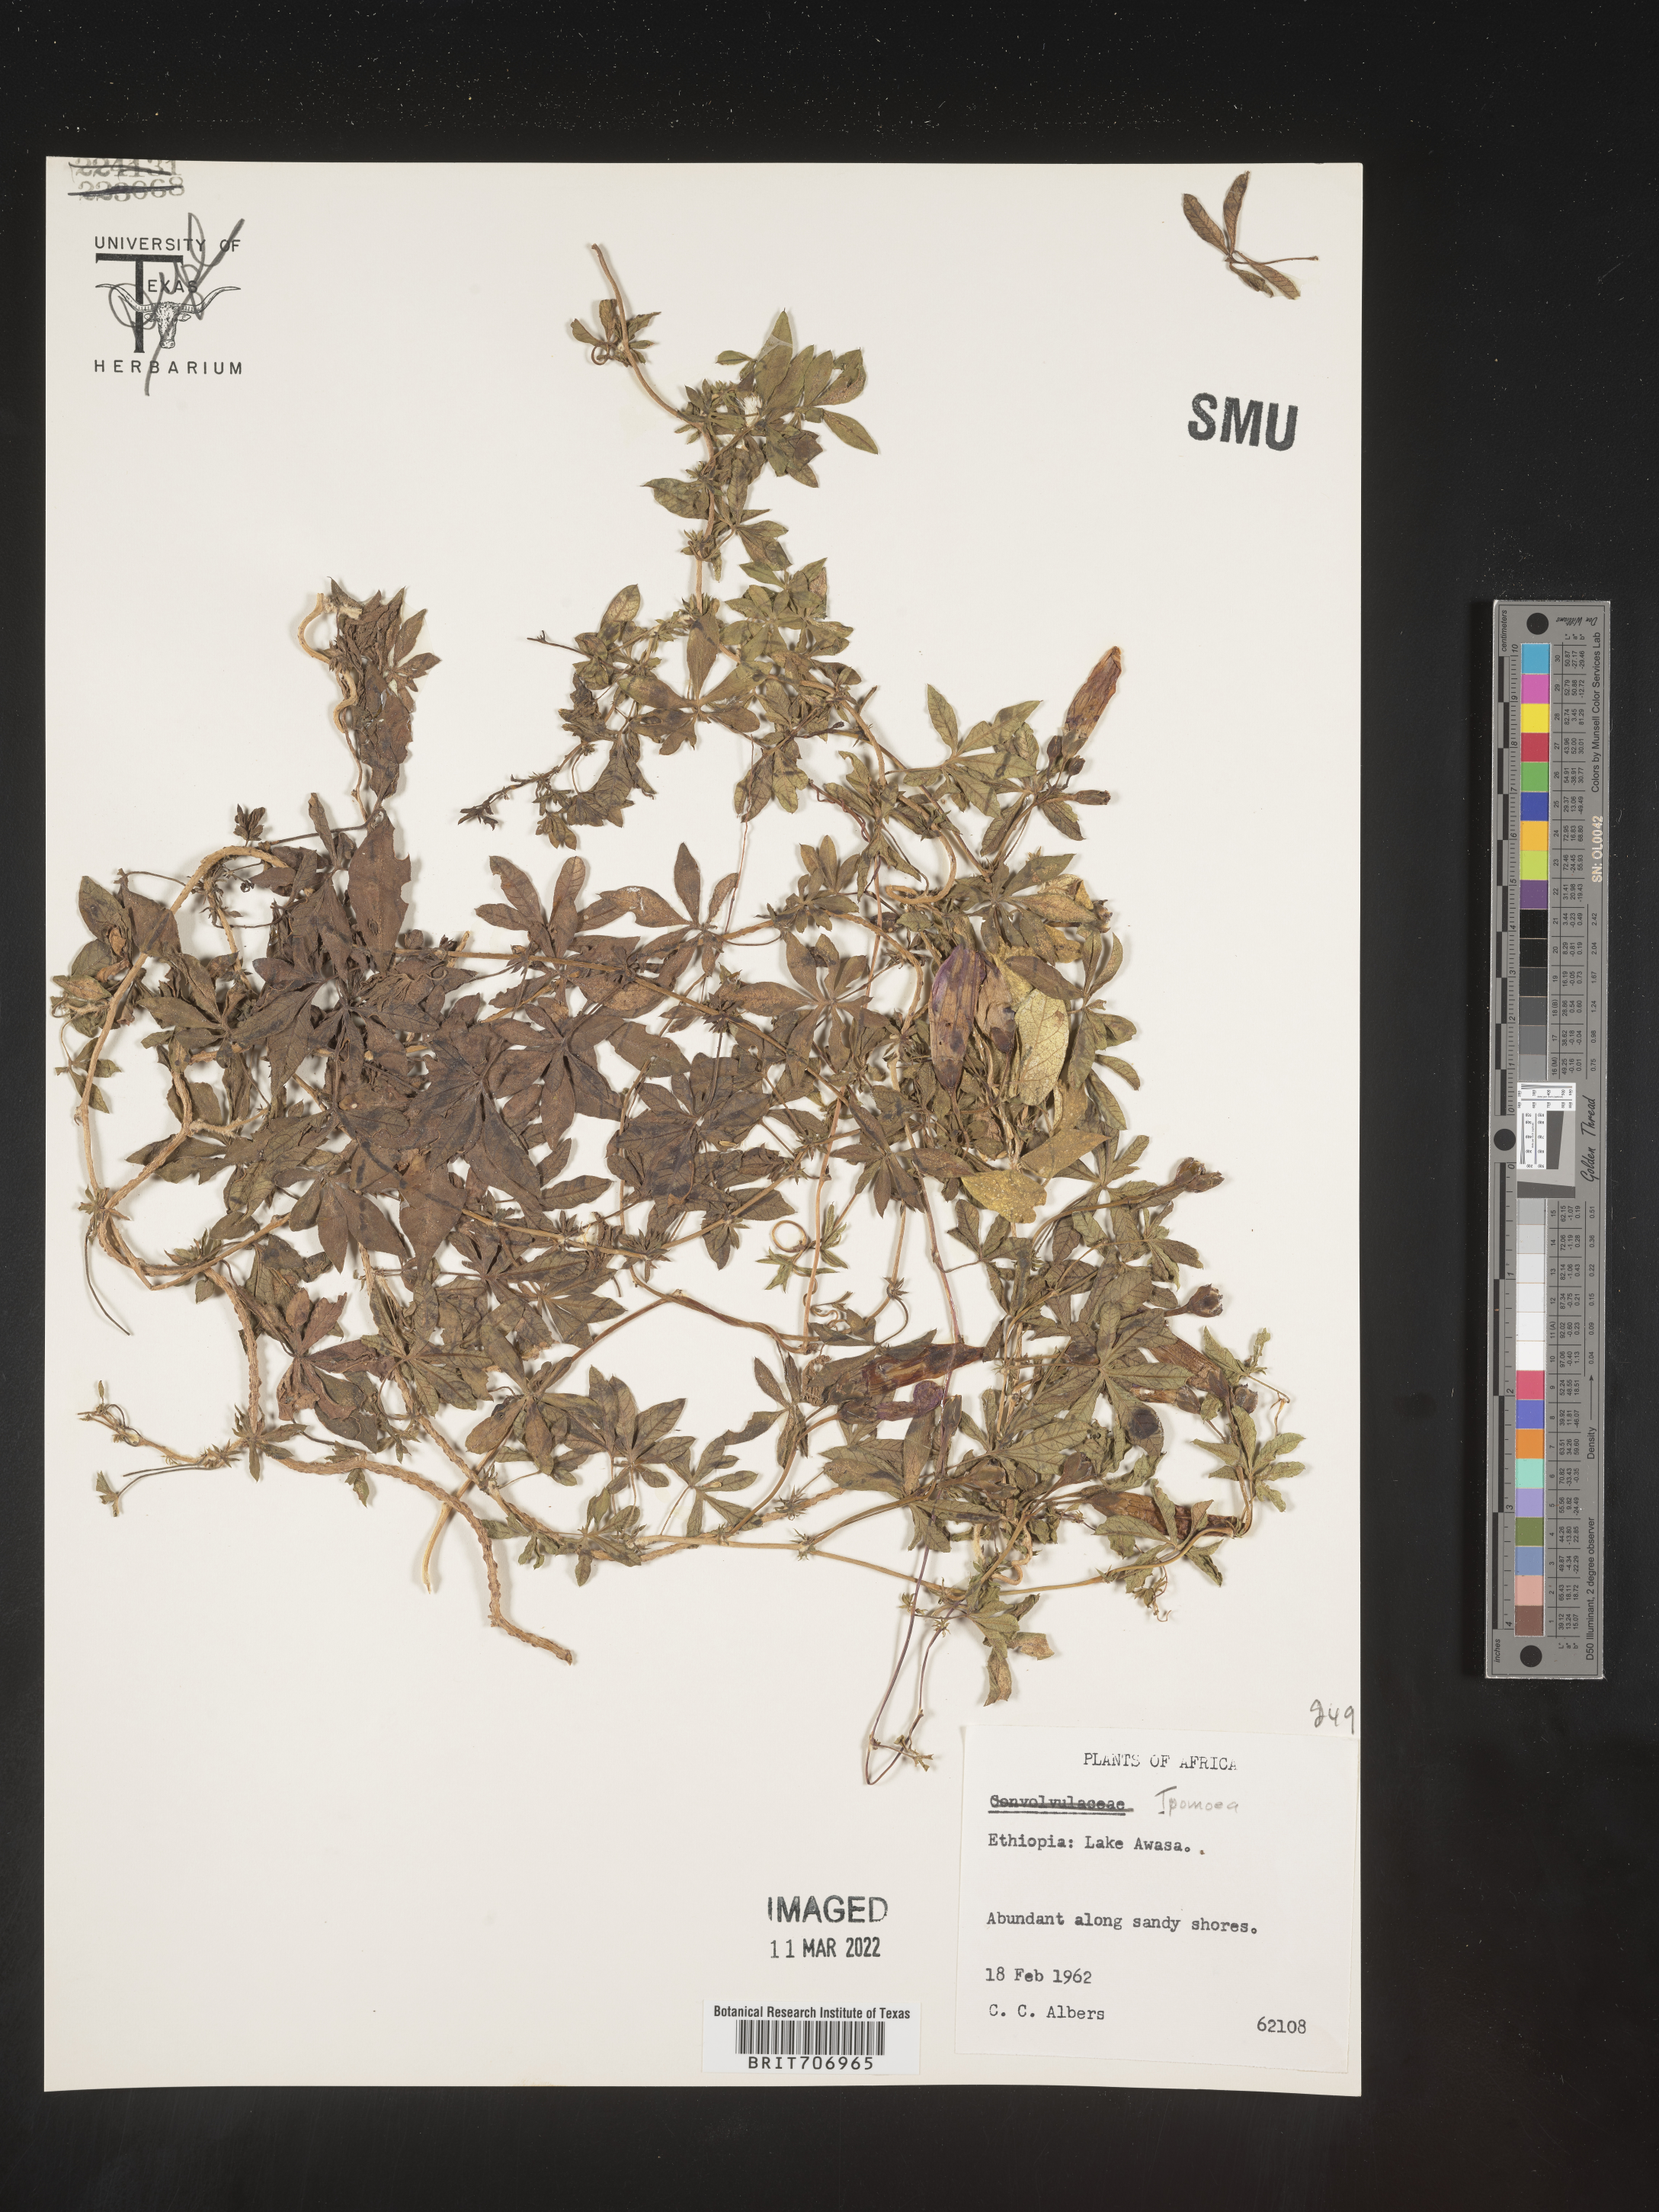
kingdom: Plantae
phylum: Tracheophyta
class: Magnoliopsida
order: Solanales
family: Convolvulaceae
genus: Ipomoea
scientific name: Ipomoea
